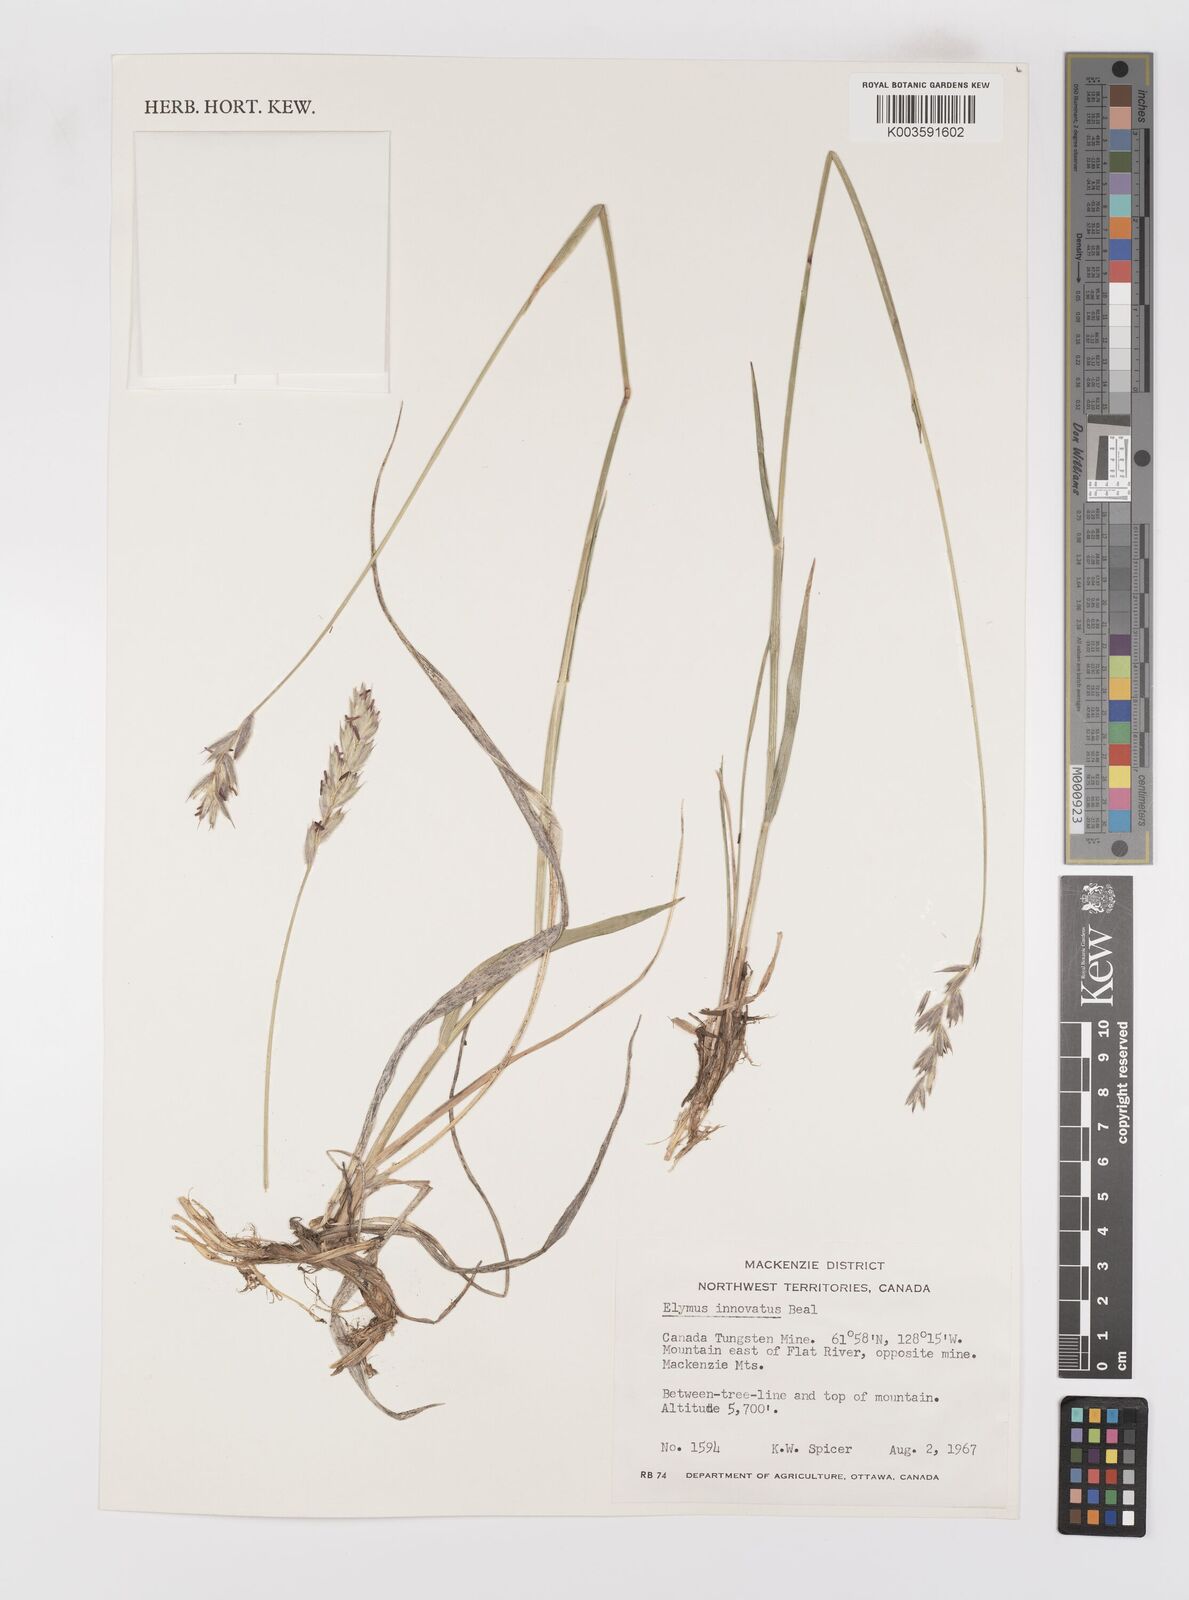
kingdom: Plantae
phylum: Tracheophyta
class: Liliopsida
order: Poales
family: Poaceae
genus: Leymus
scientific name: Leymus innovatus
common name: Boreal wild rye
